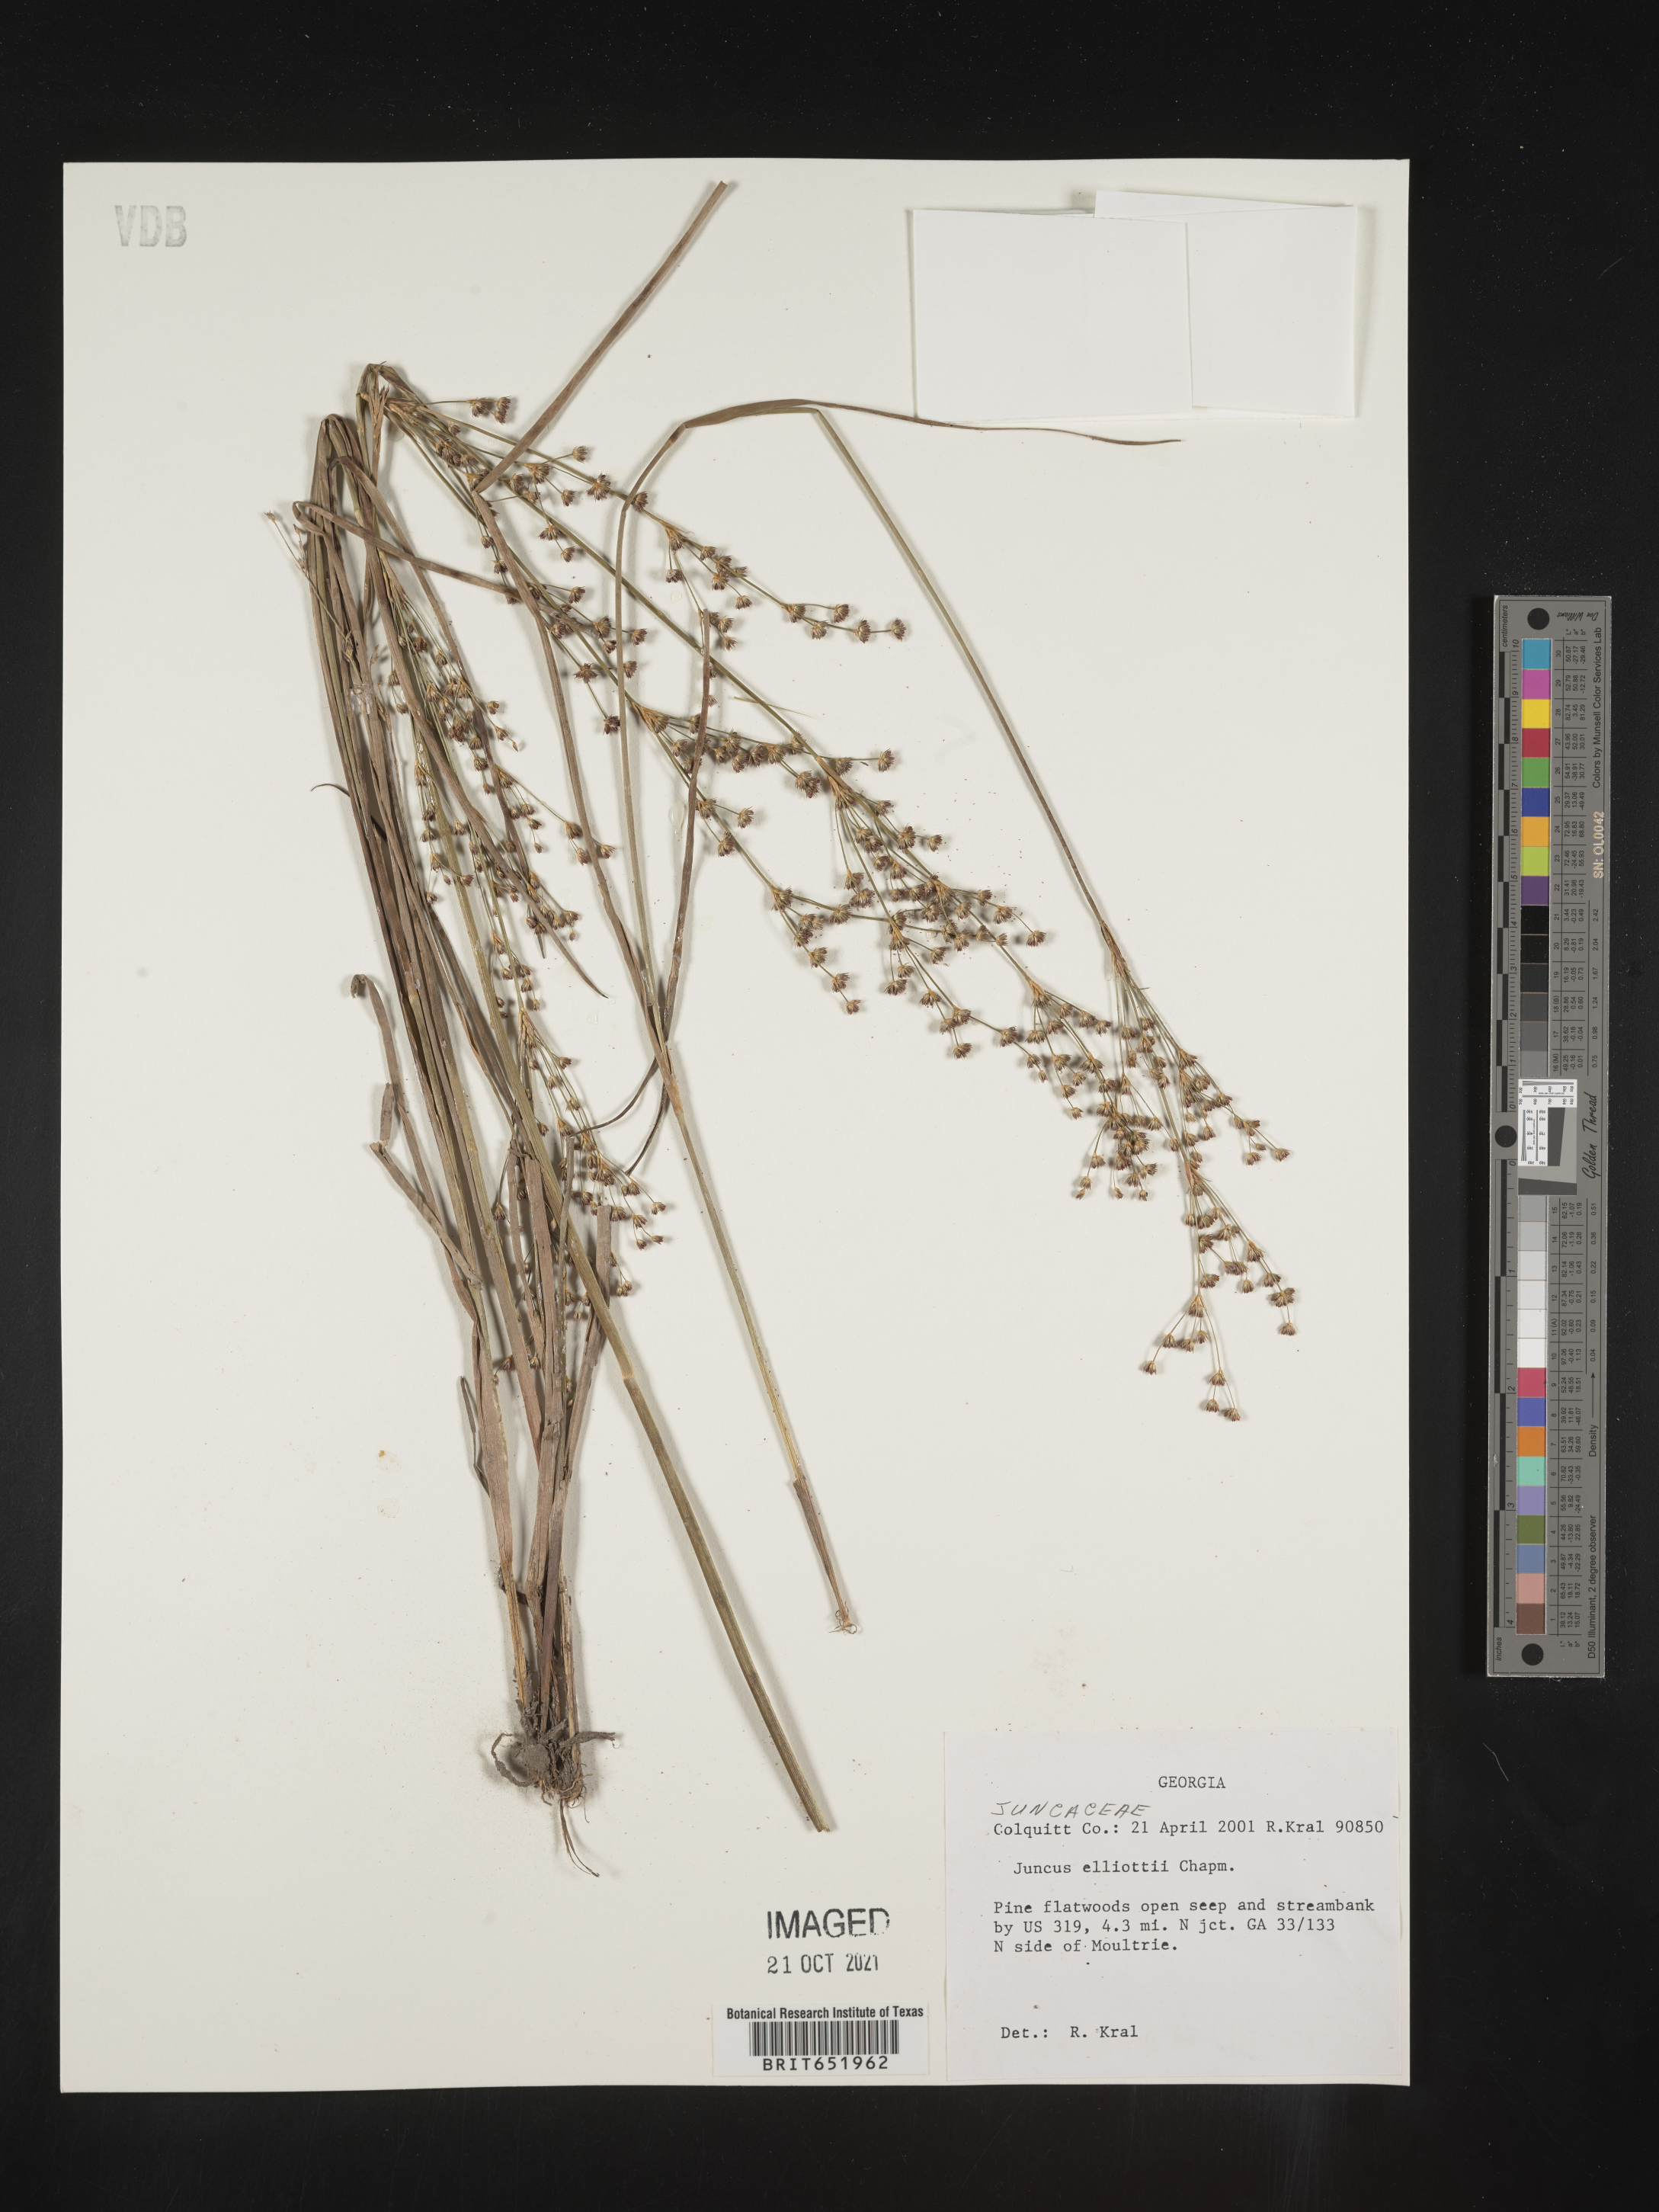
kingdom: Plantae
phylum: Tracheophyta
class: Liliopsida
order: Poales
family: Juncaceae
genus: Juncus
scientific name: Juncus elliottii
